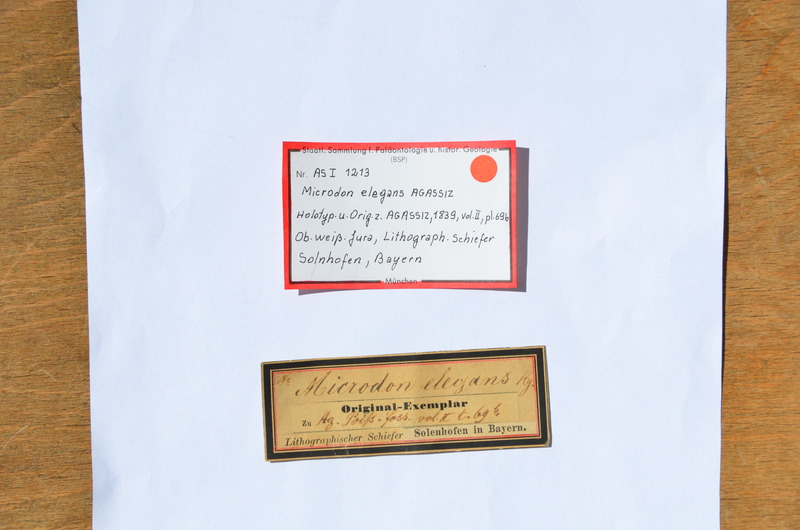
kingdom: Animalia
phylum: Chordata
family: Pycnodontidae
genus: Proscinetes
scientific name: Proscinetes elegans
